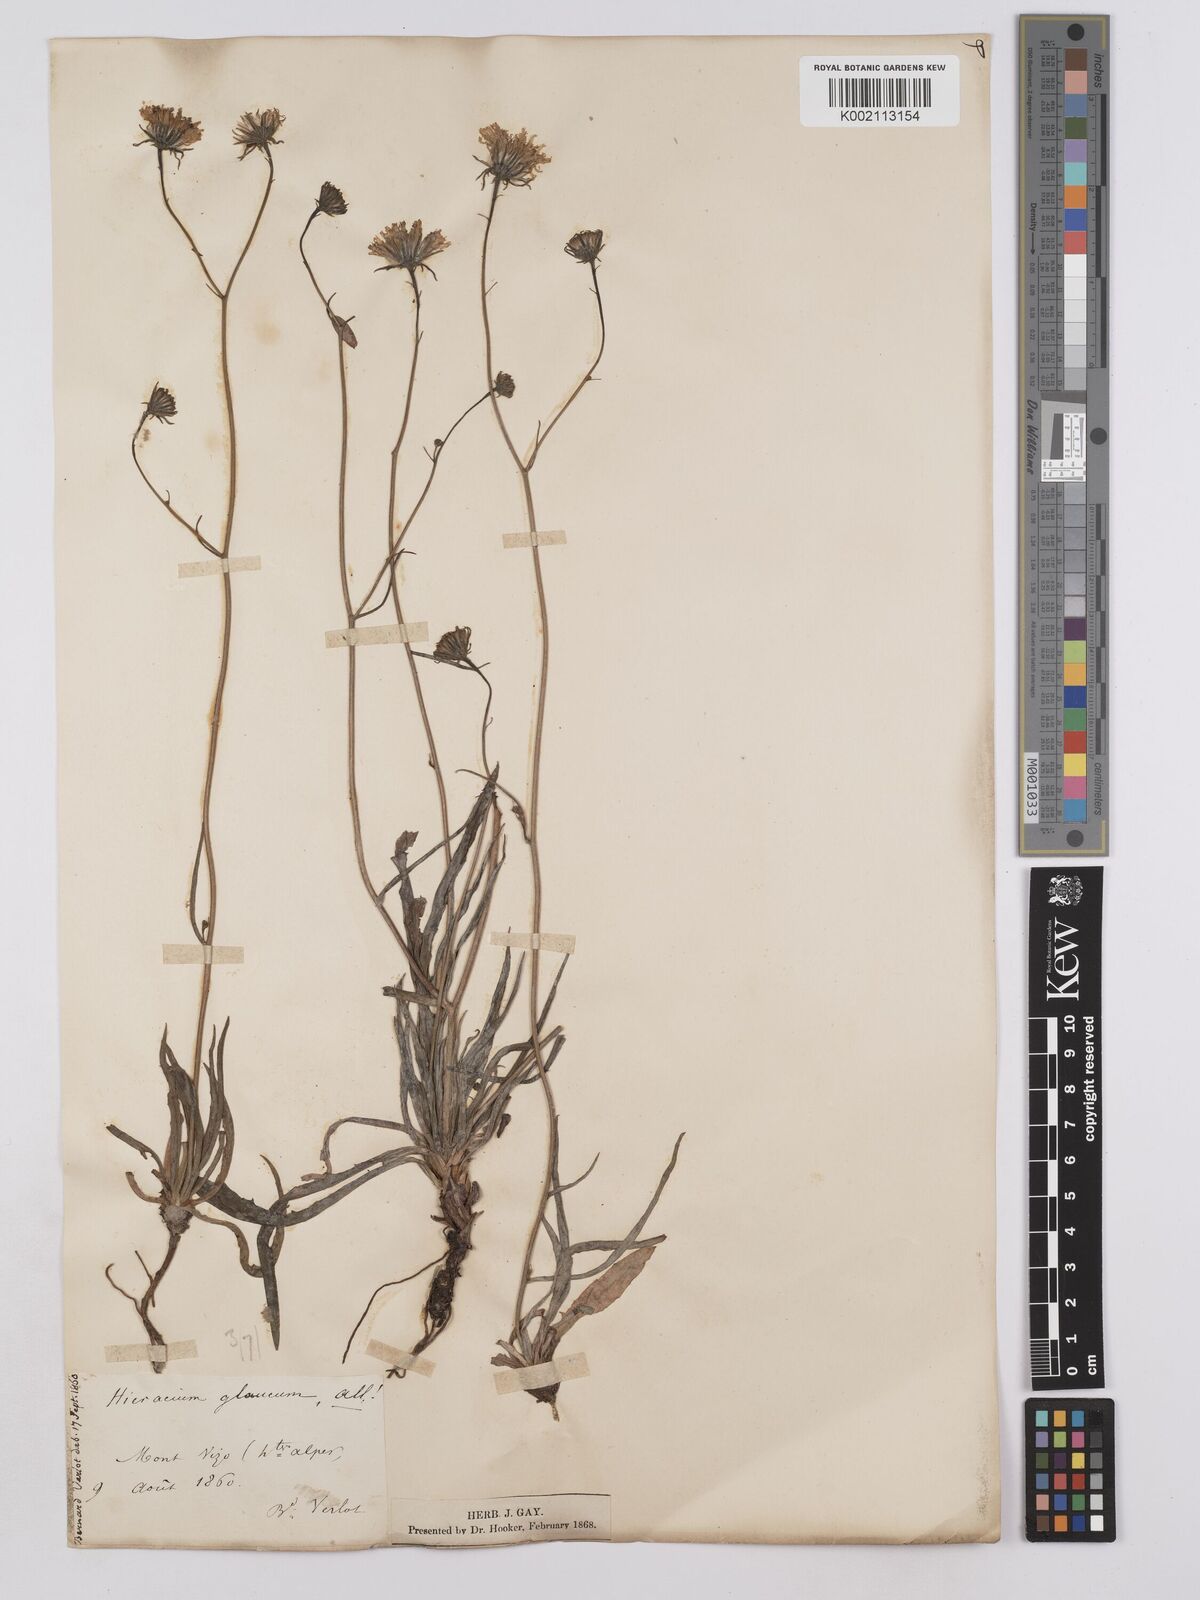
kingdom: Plantae
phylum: Tracheophyta
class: Magnoliopsida
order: Asterales
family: Asteraceae
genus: Hieracium
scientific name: Hieracium glaucum
